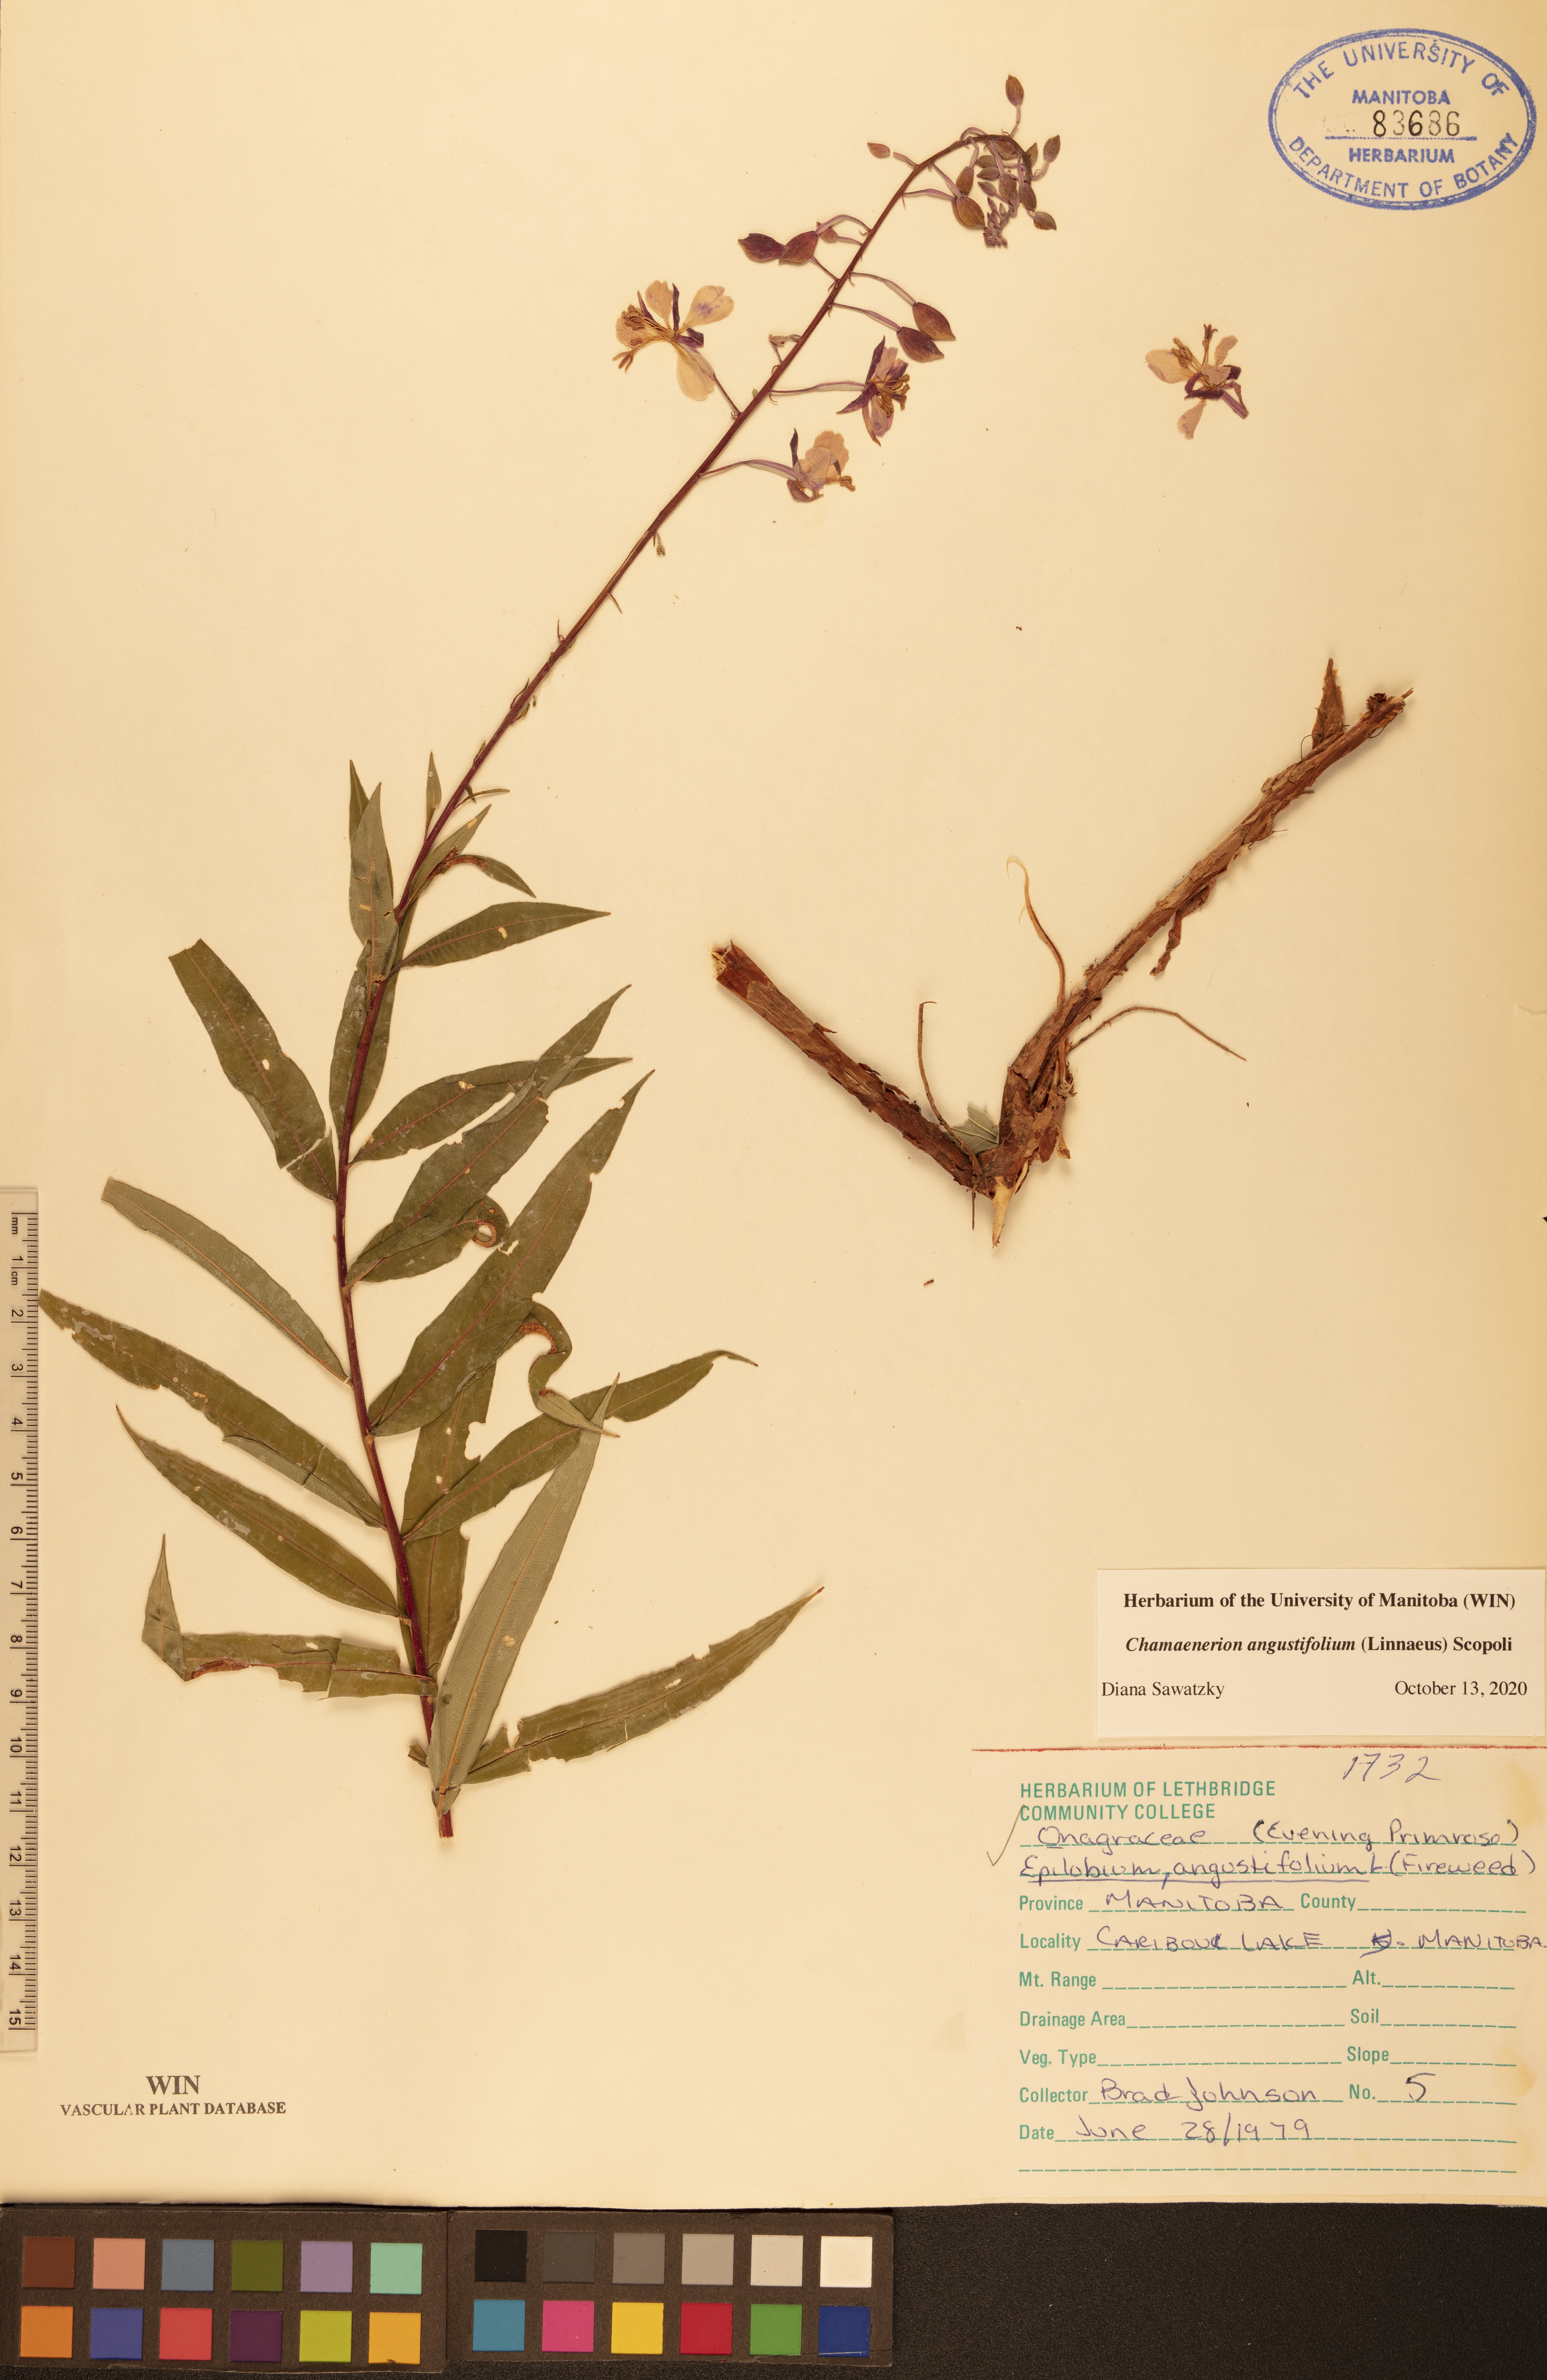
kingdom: Plantae
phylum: Tracheophyta
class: Magnoliopsida
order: Myrtales
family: Onagraceae
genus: Chamaenerion
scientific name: Chamaenerion angustifolium
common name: Fireweed
